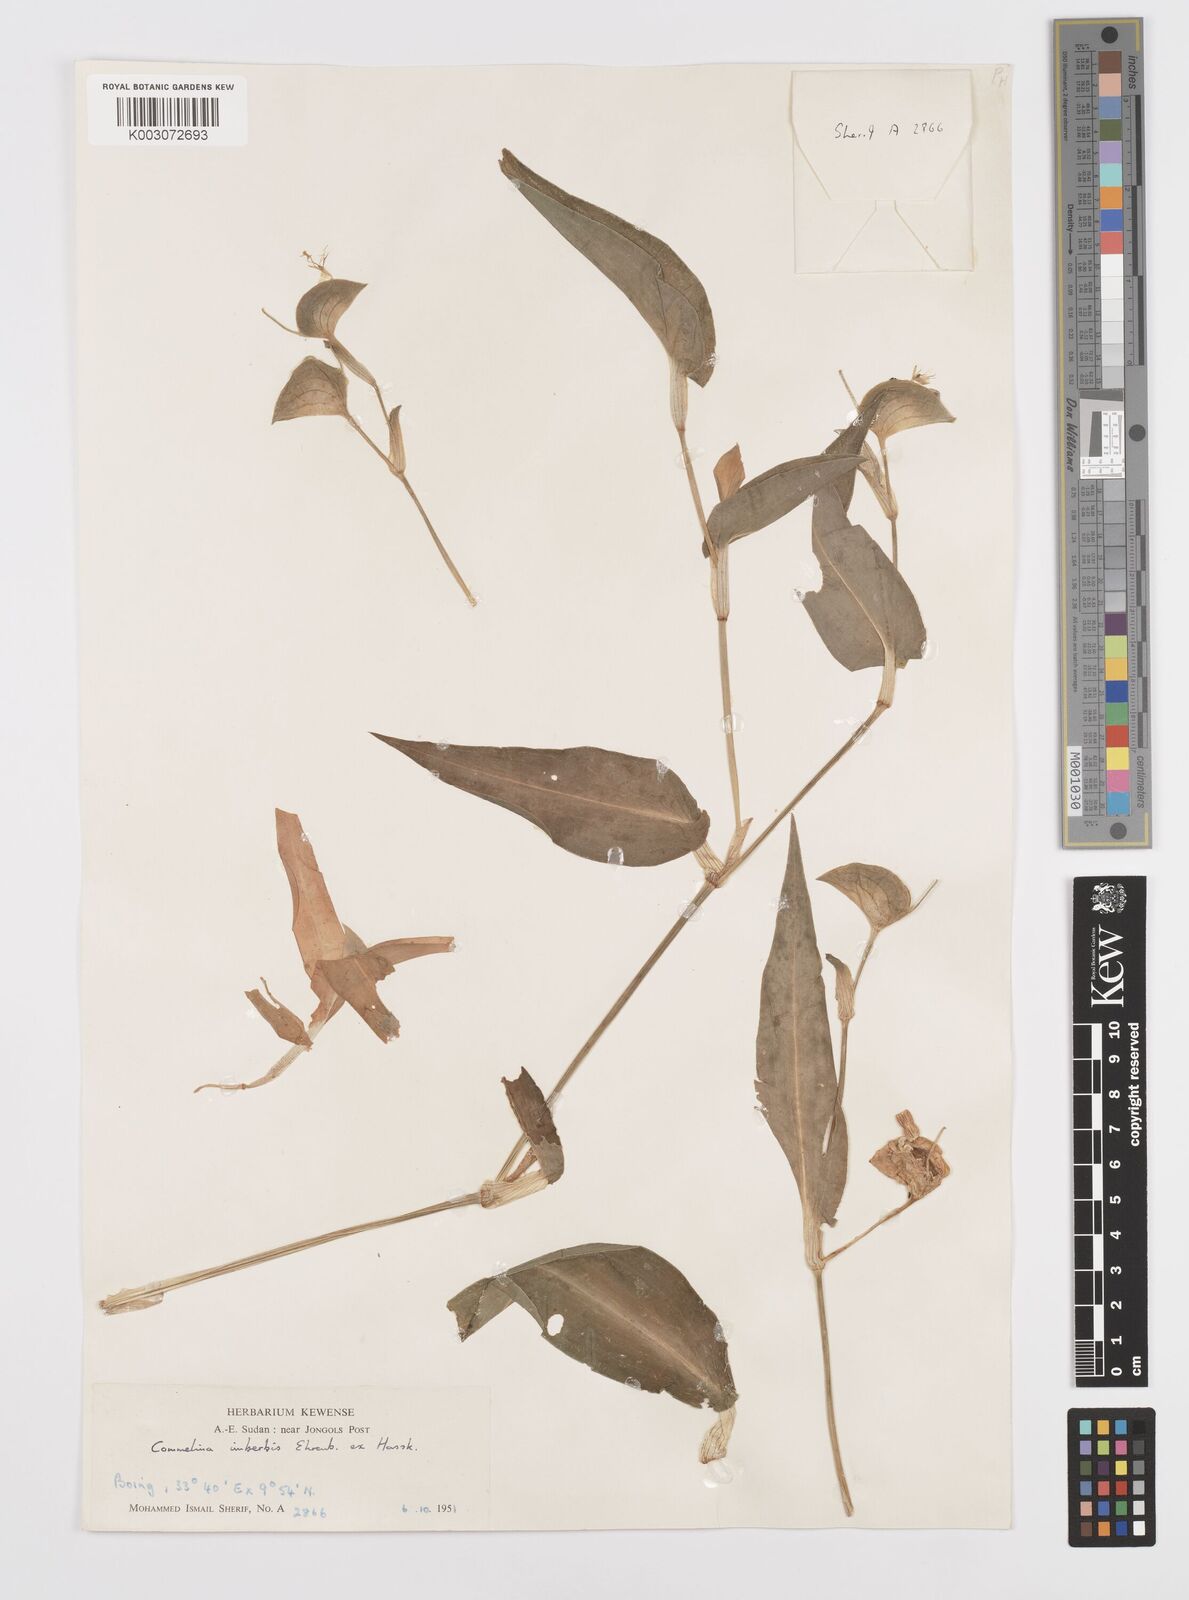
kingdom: Plantae
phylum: Tracheophyta
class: Liliopsida
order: Commelinales
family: Commelinaceae
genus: Commelina
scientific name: Commelina imberbis
